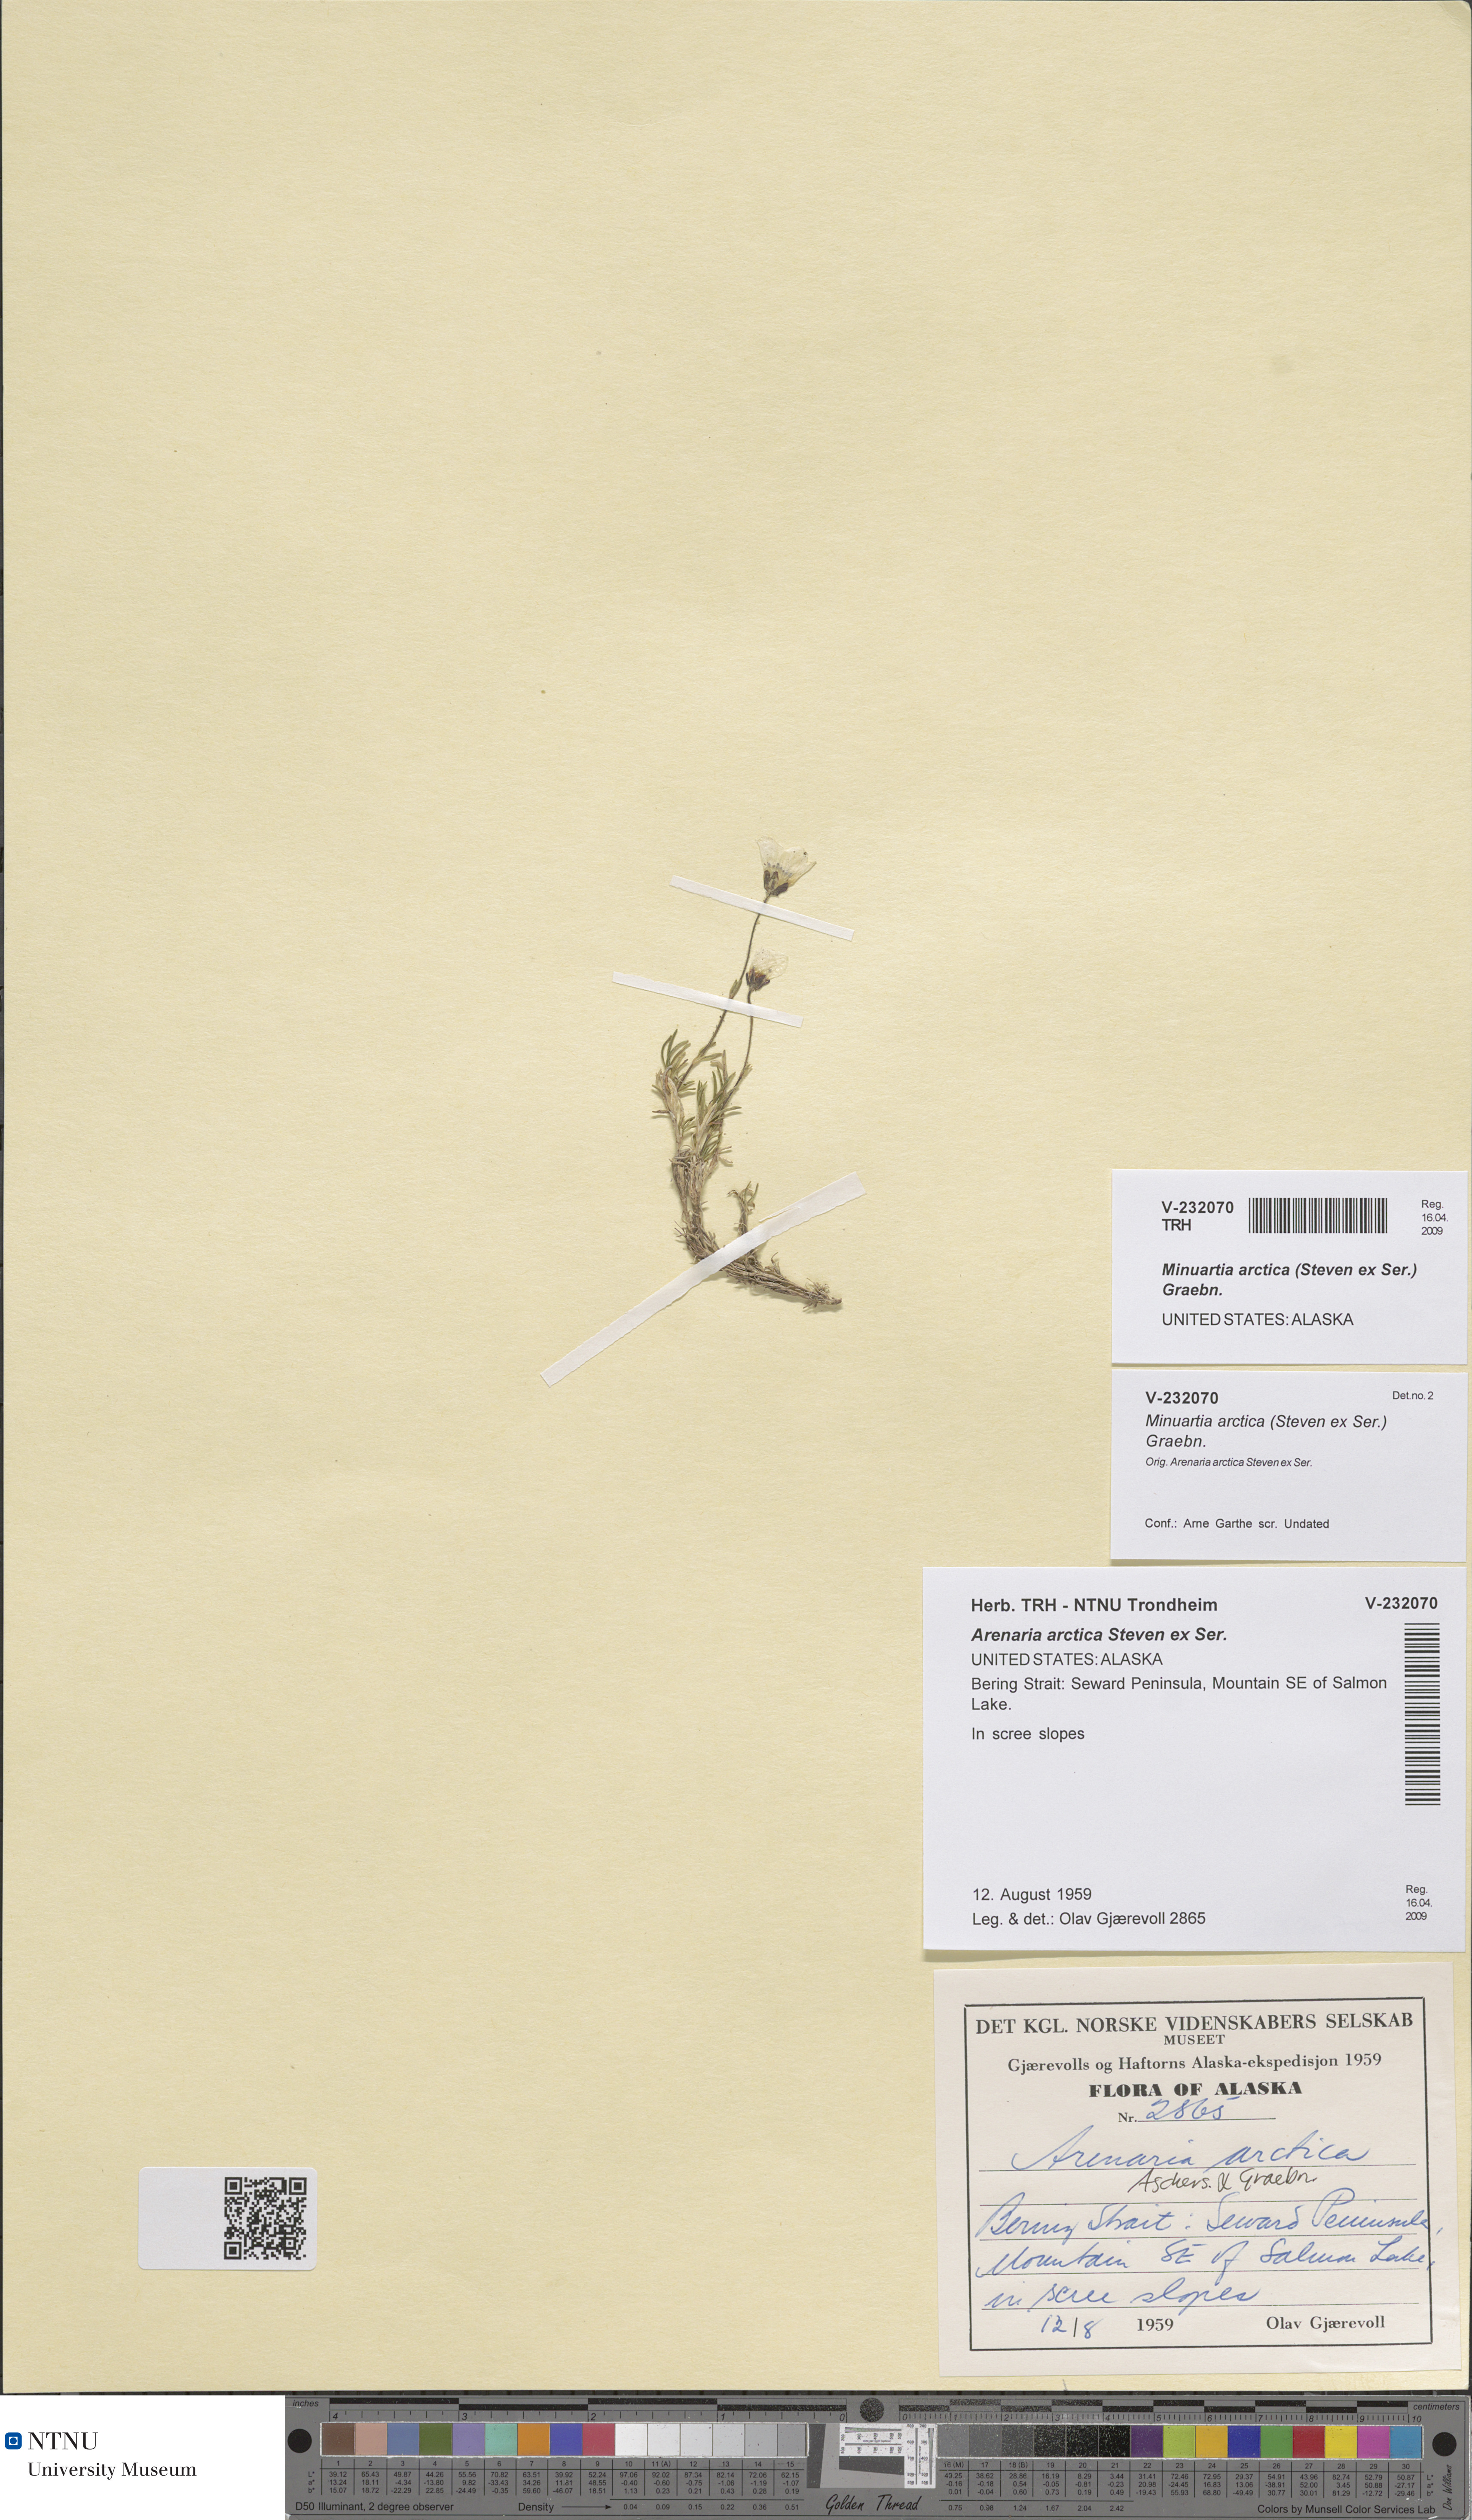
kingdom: Plantae
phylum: Tracheophyta
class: Magnoliopsida
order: Caryophyllales
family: Caryophyllaceae
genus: Cherleria
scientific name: Cherleria arctica
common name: Arctic sandwort
